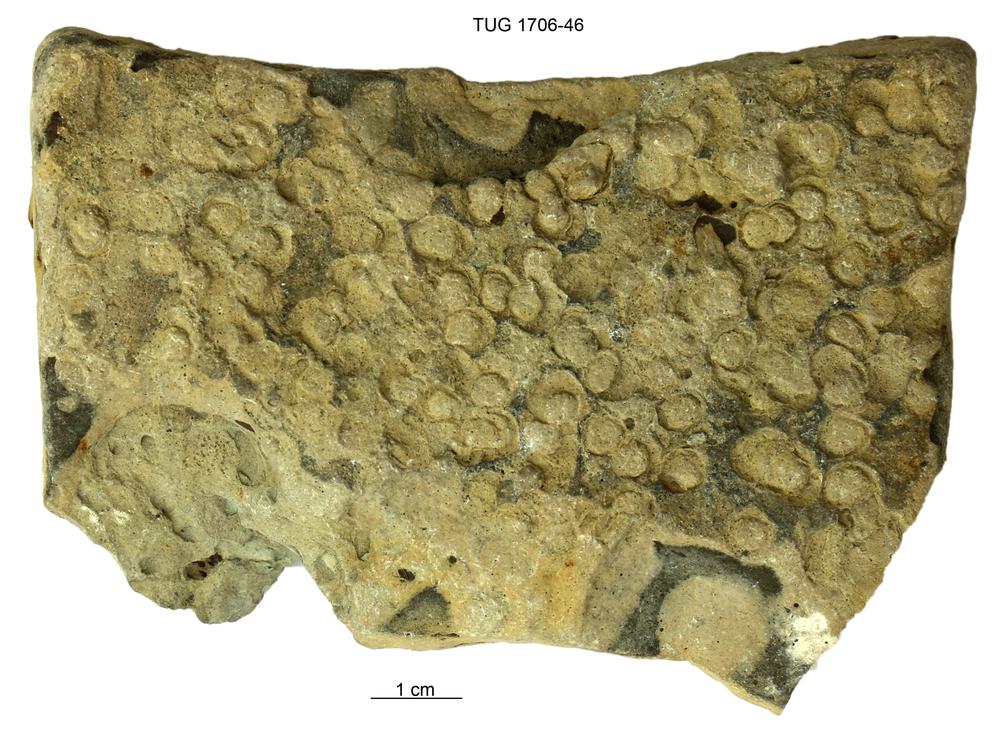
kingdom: Animalia
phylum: Arthropoda
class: Maxillopoda
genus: Anellusichnus
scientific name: Anellusichnus
